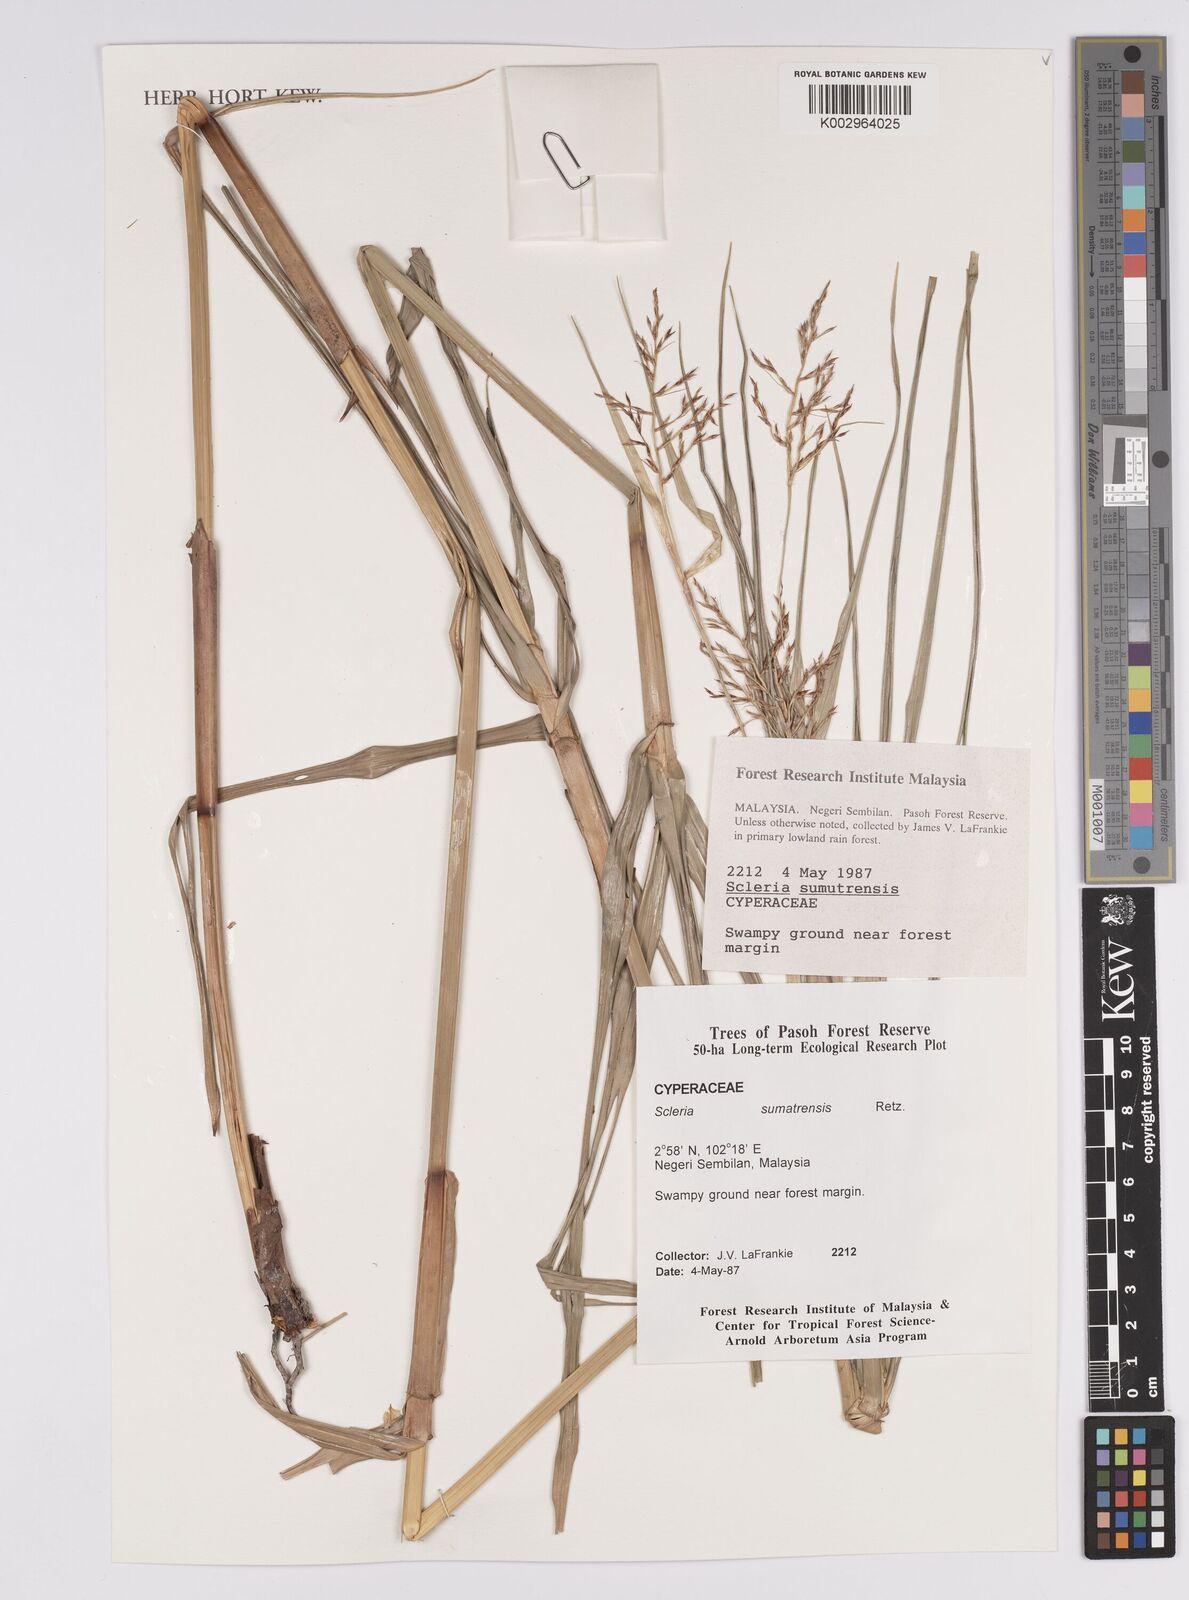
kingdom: Plantae
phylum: Tracheophyta
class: Liliopsida
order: Poales
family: Cyperaceae
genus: Scleria
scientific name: Scleria sumatrensis
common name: Sumatran scleria
